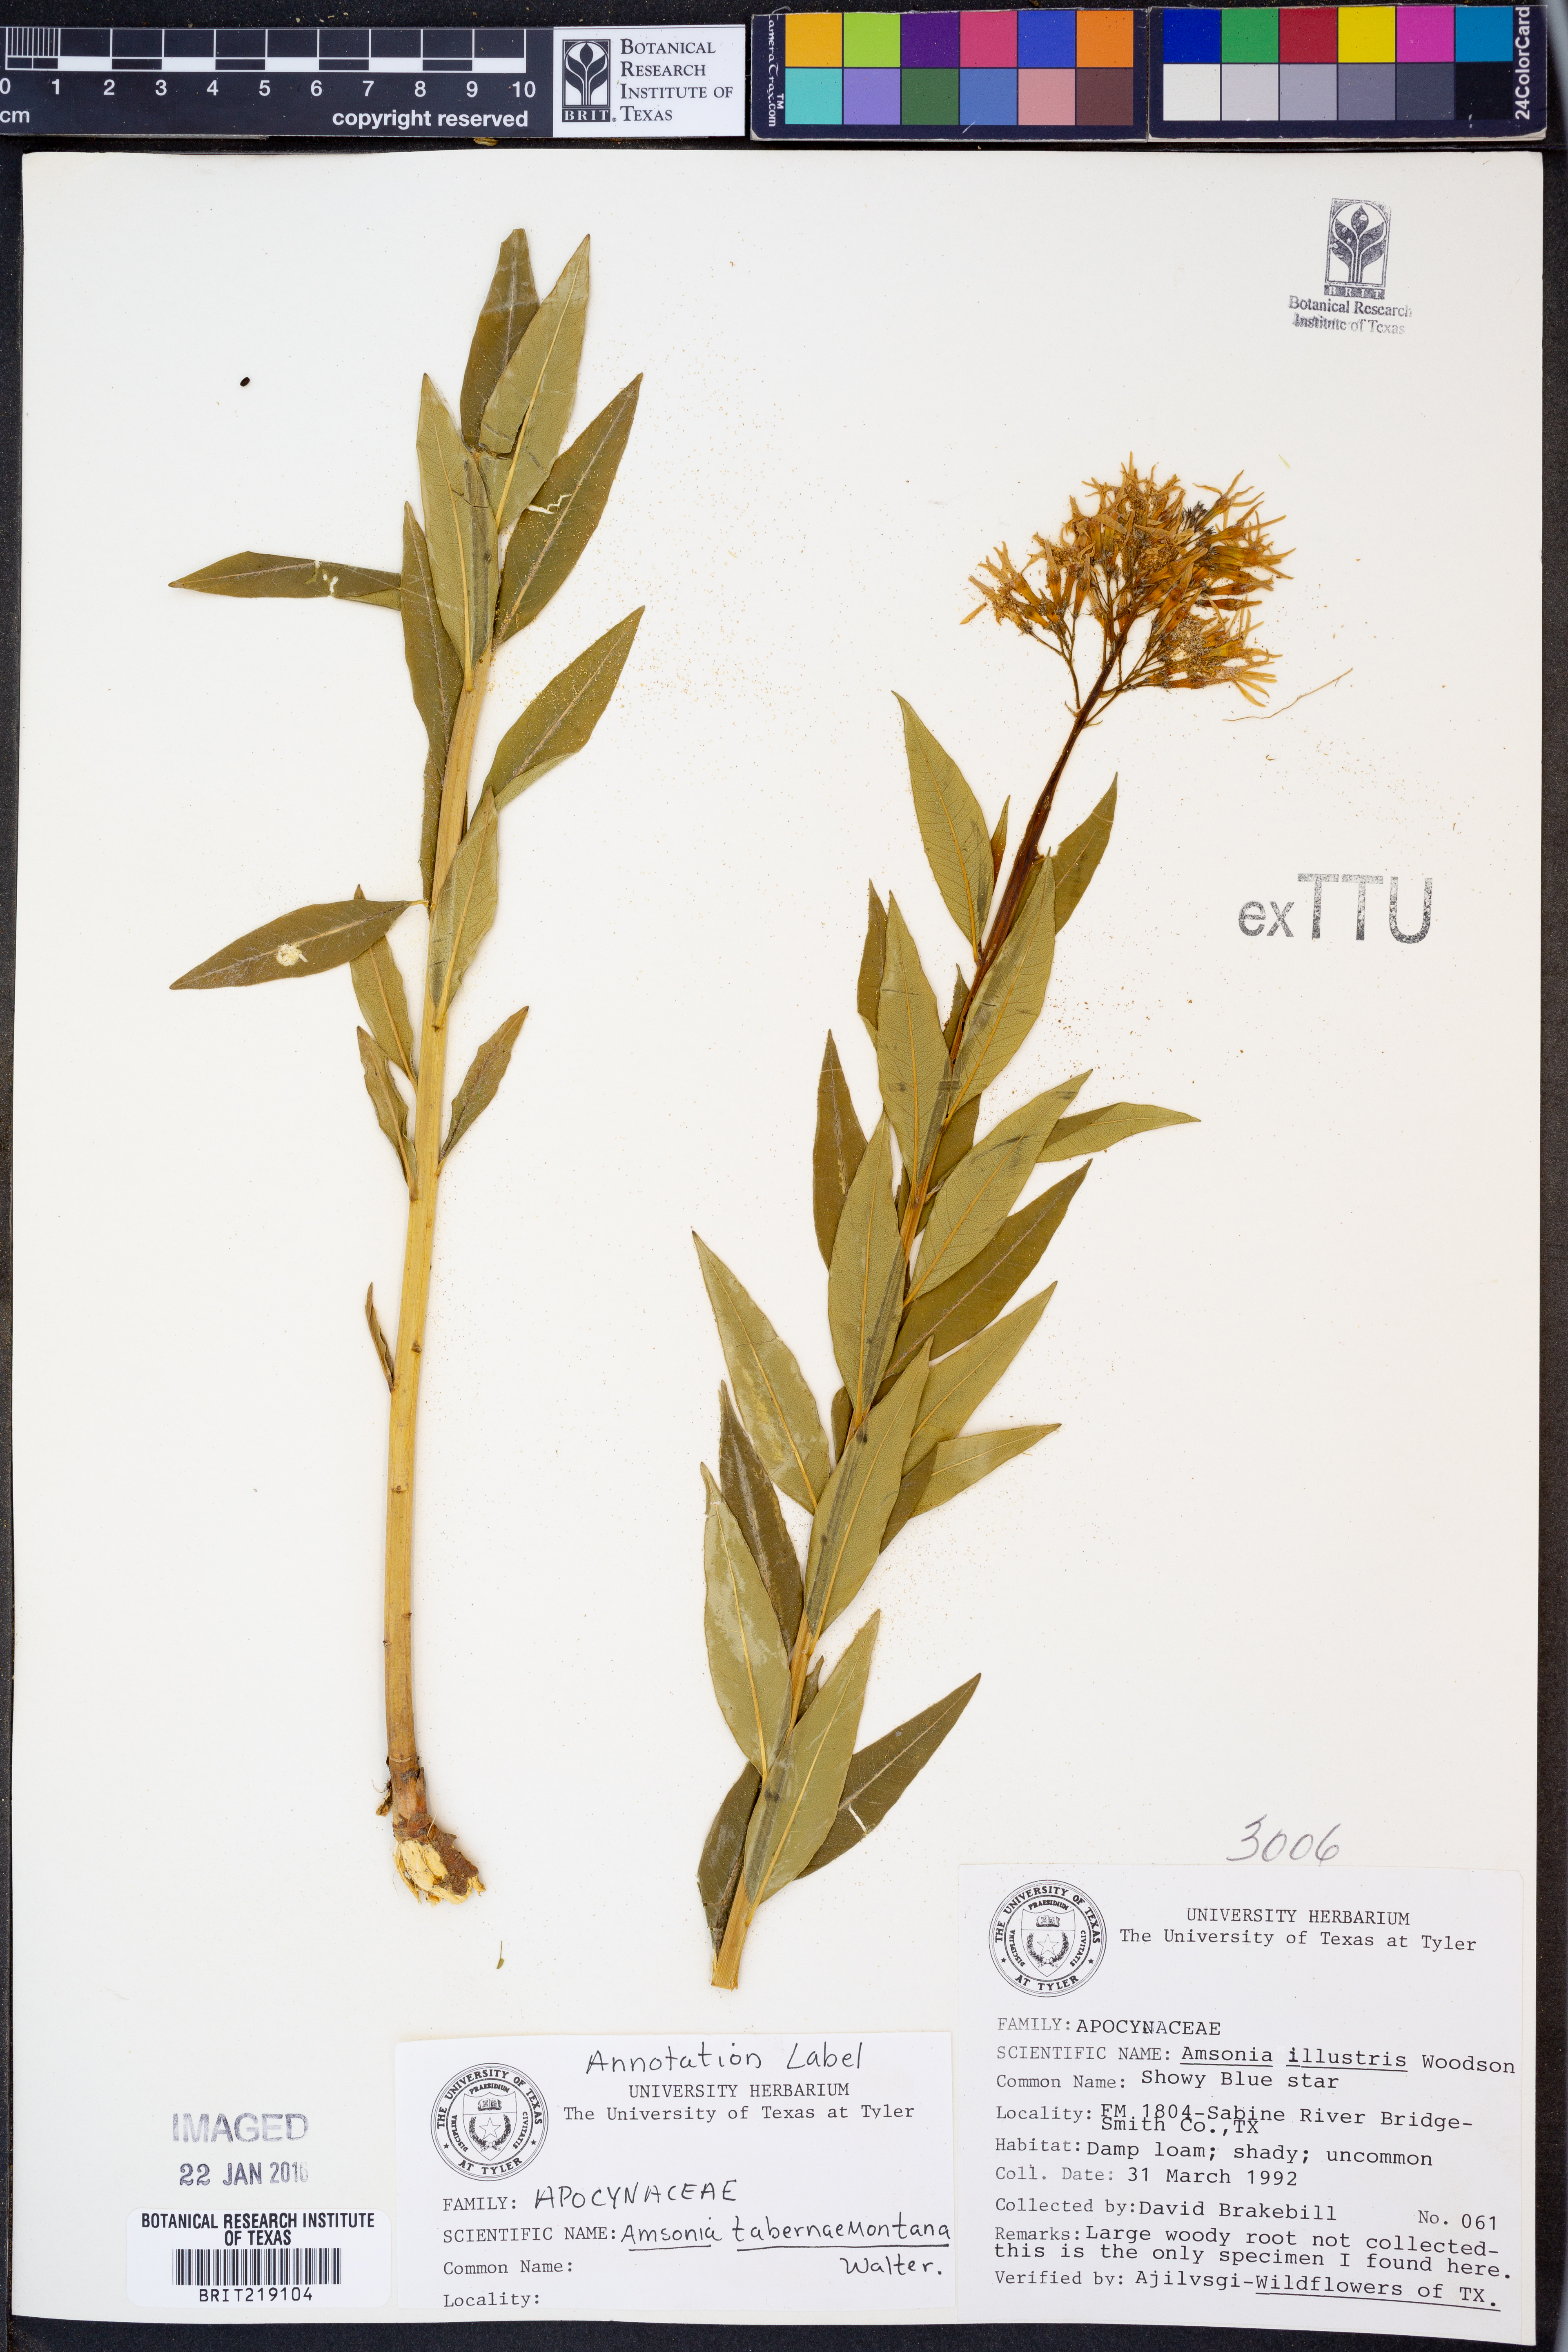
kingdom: Plantae
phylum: Tracheophyta
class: Magnoliopsida
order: Gentianales
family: Apocynaceae
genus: Amsonia
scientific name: Amsonia tabernaemontana
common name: Texas-star
